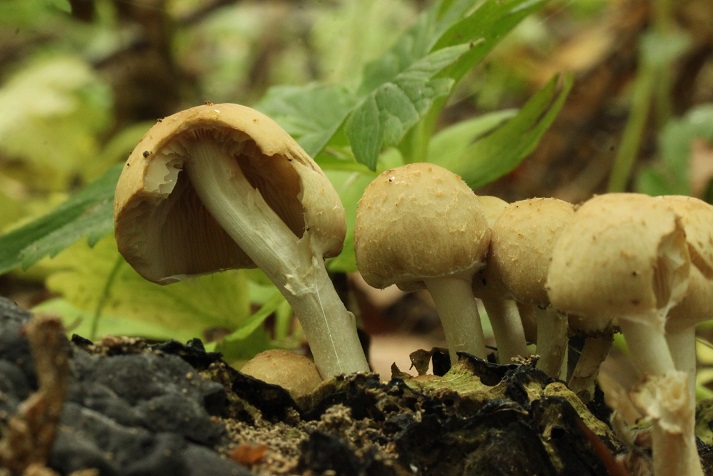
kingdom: Fungi
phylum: Basidiomycota
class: Agaricomycetes
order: Agaricales
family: Psathyrellaceae
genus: Candolleomyces
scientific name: Candolleomyces candolleanus
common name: Candolles mørkhat
